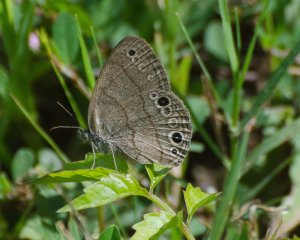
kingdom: Animalia
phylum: Arthropoda
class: Insecta
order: Lepidoptera
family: Nymphalidae
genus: Hermeuptychia
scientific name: Hermeuptychia hermes
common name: Carolina Satyr
